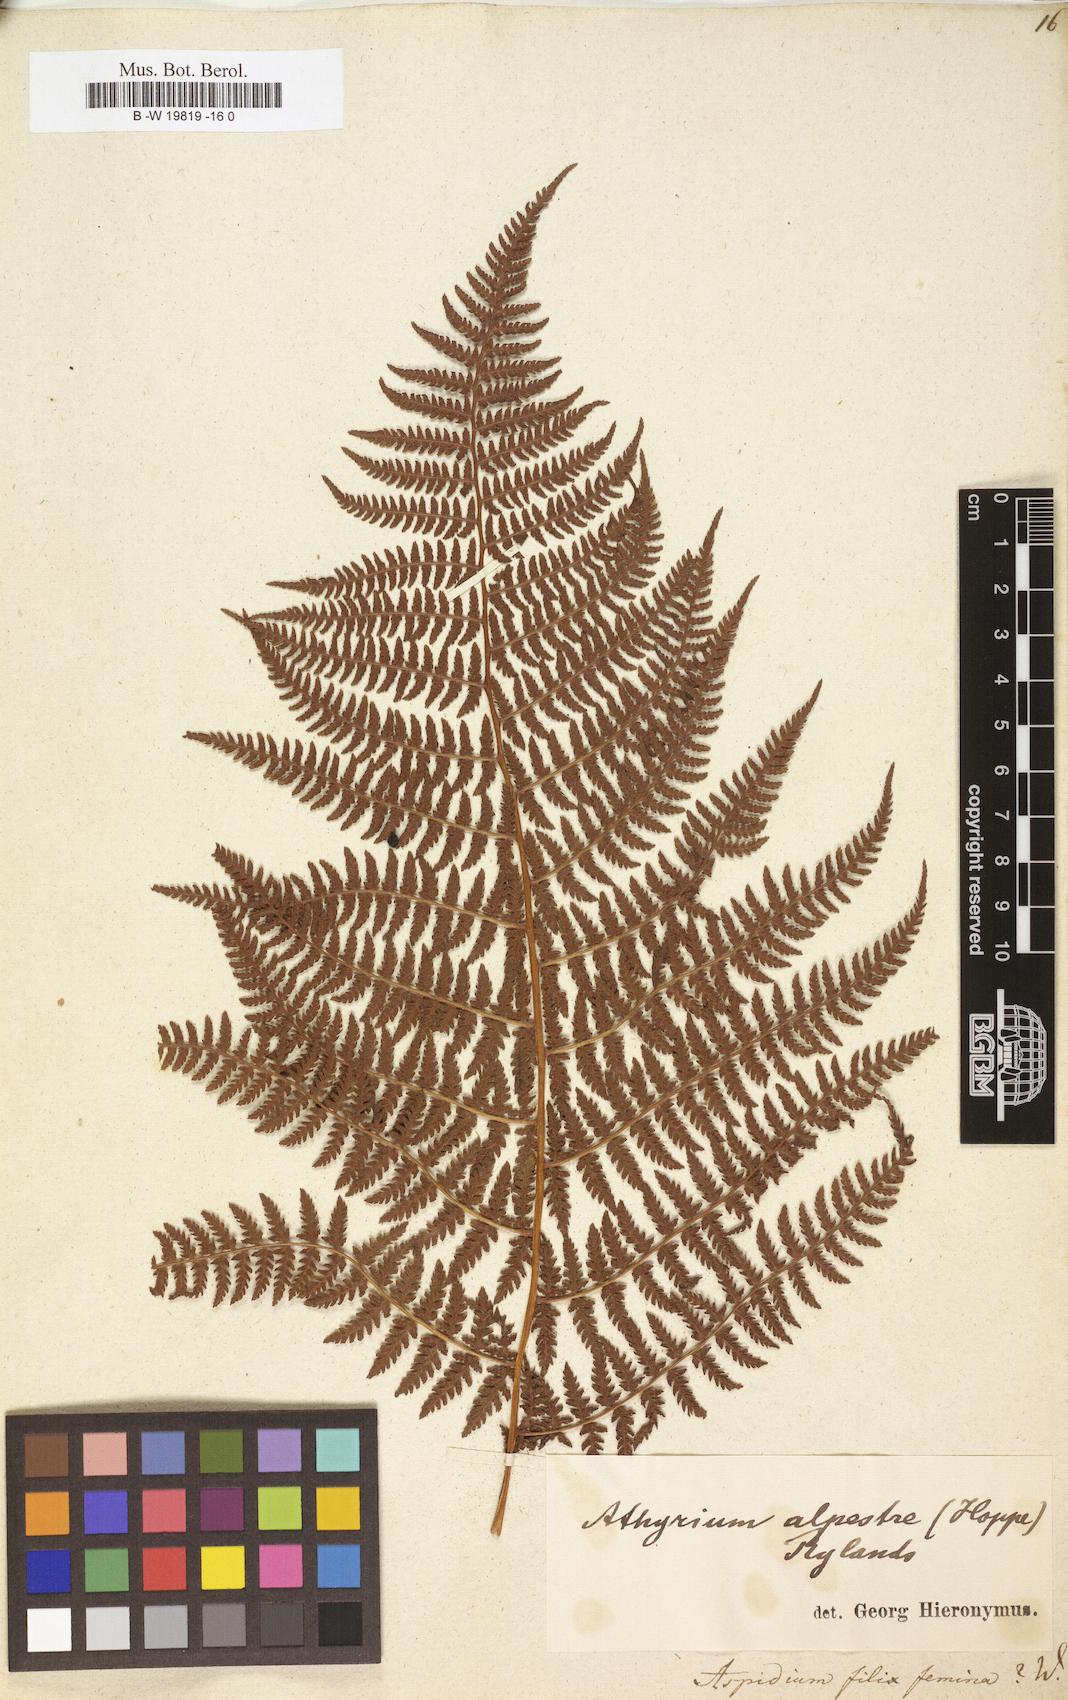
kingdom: Plantae
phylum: Tracheophyta
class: Polypodiopsida
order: Polypodiales
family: Athyriaceae
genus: Athyrium
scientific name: Athyrium filix-femina
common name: Lady fern
